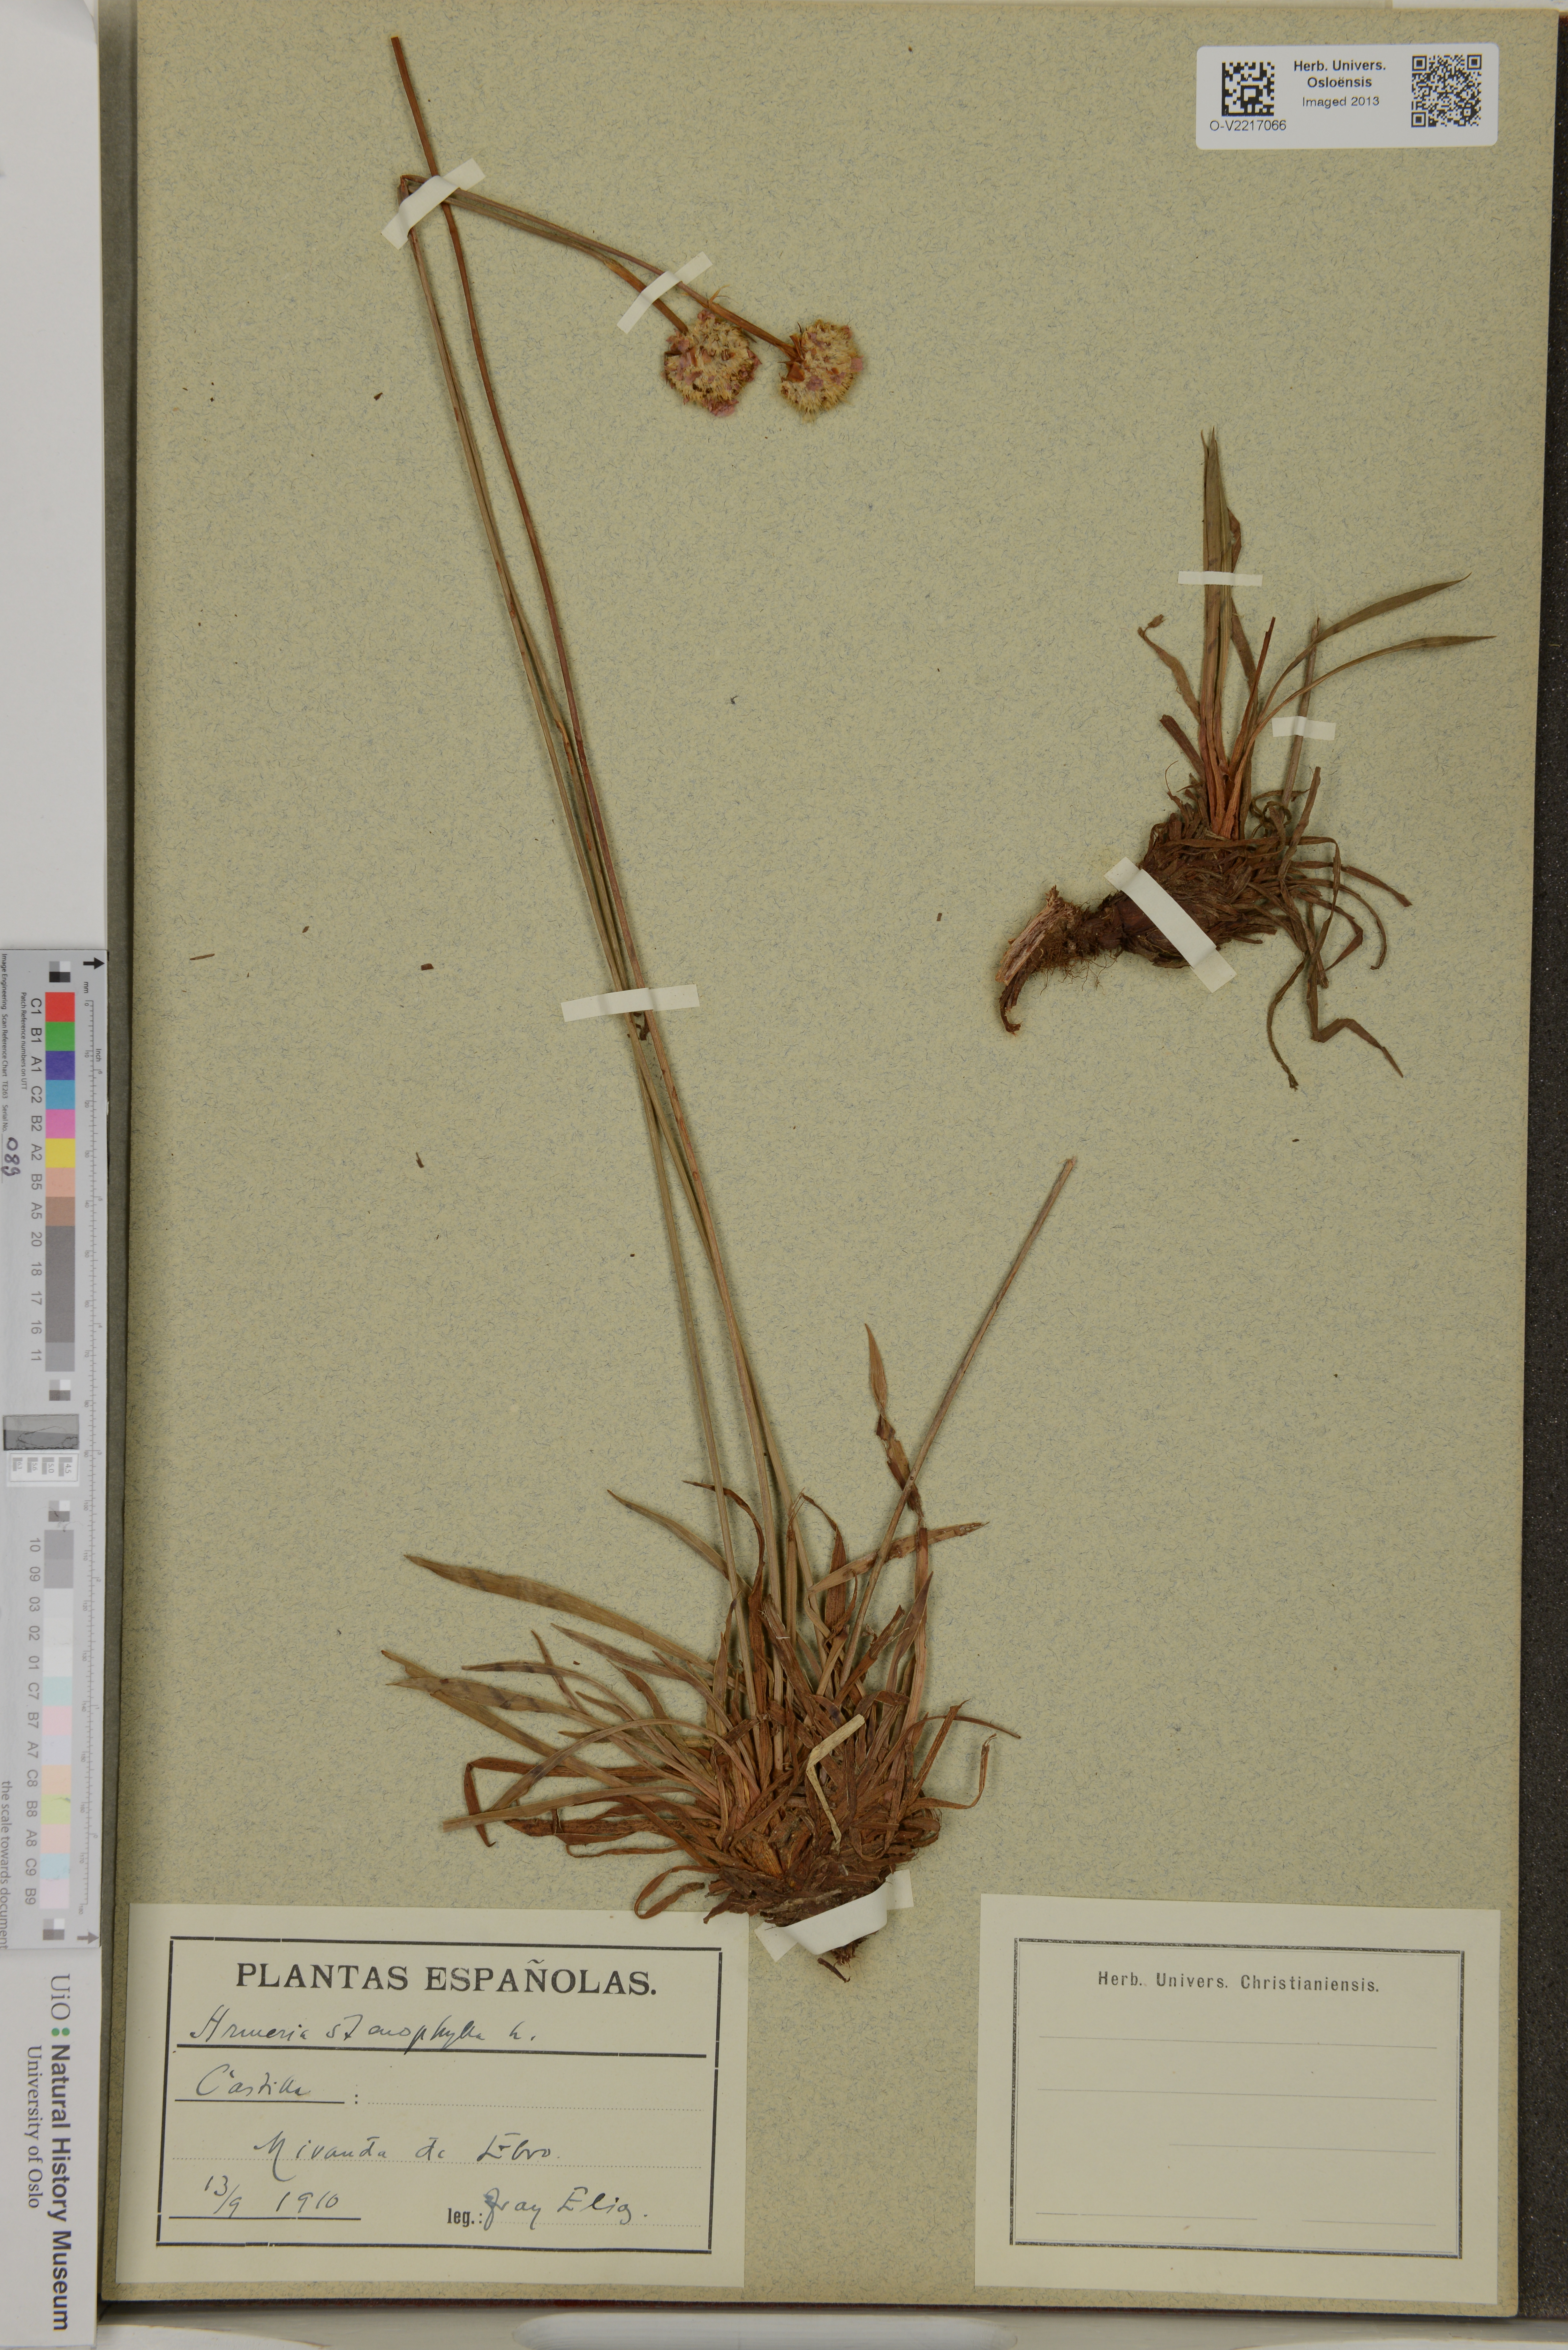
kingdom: Plantae
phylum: Tracheophyta
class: Magnoliopsida
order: Caryophyllales
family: Plumbaginaceae
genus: Armeria
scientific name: Armeria alliacea
